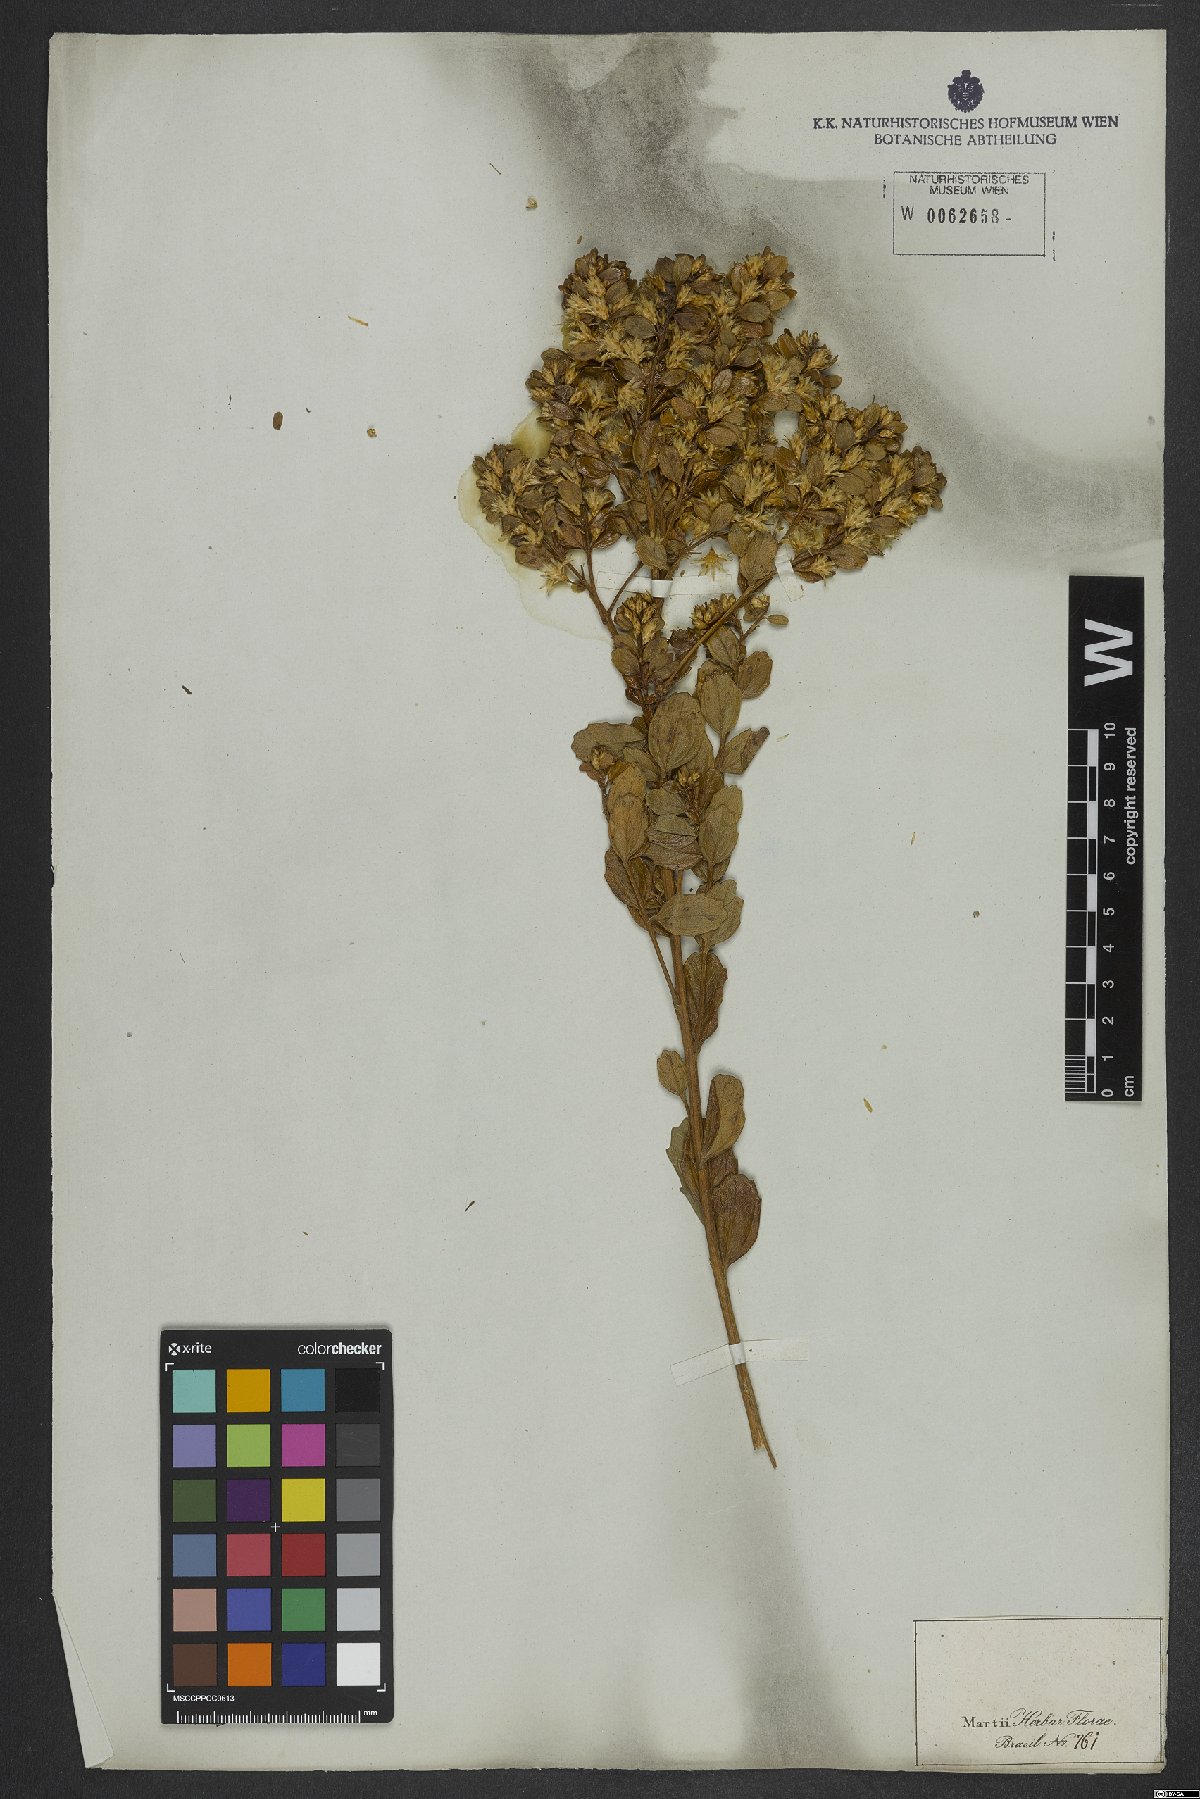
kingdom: Plantae
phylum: Tracheophyta
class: Magnoliopsida
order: Asterales
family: Asteraceae
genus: Baccharis
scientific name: Baccharis retusa
